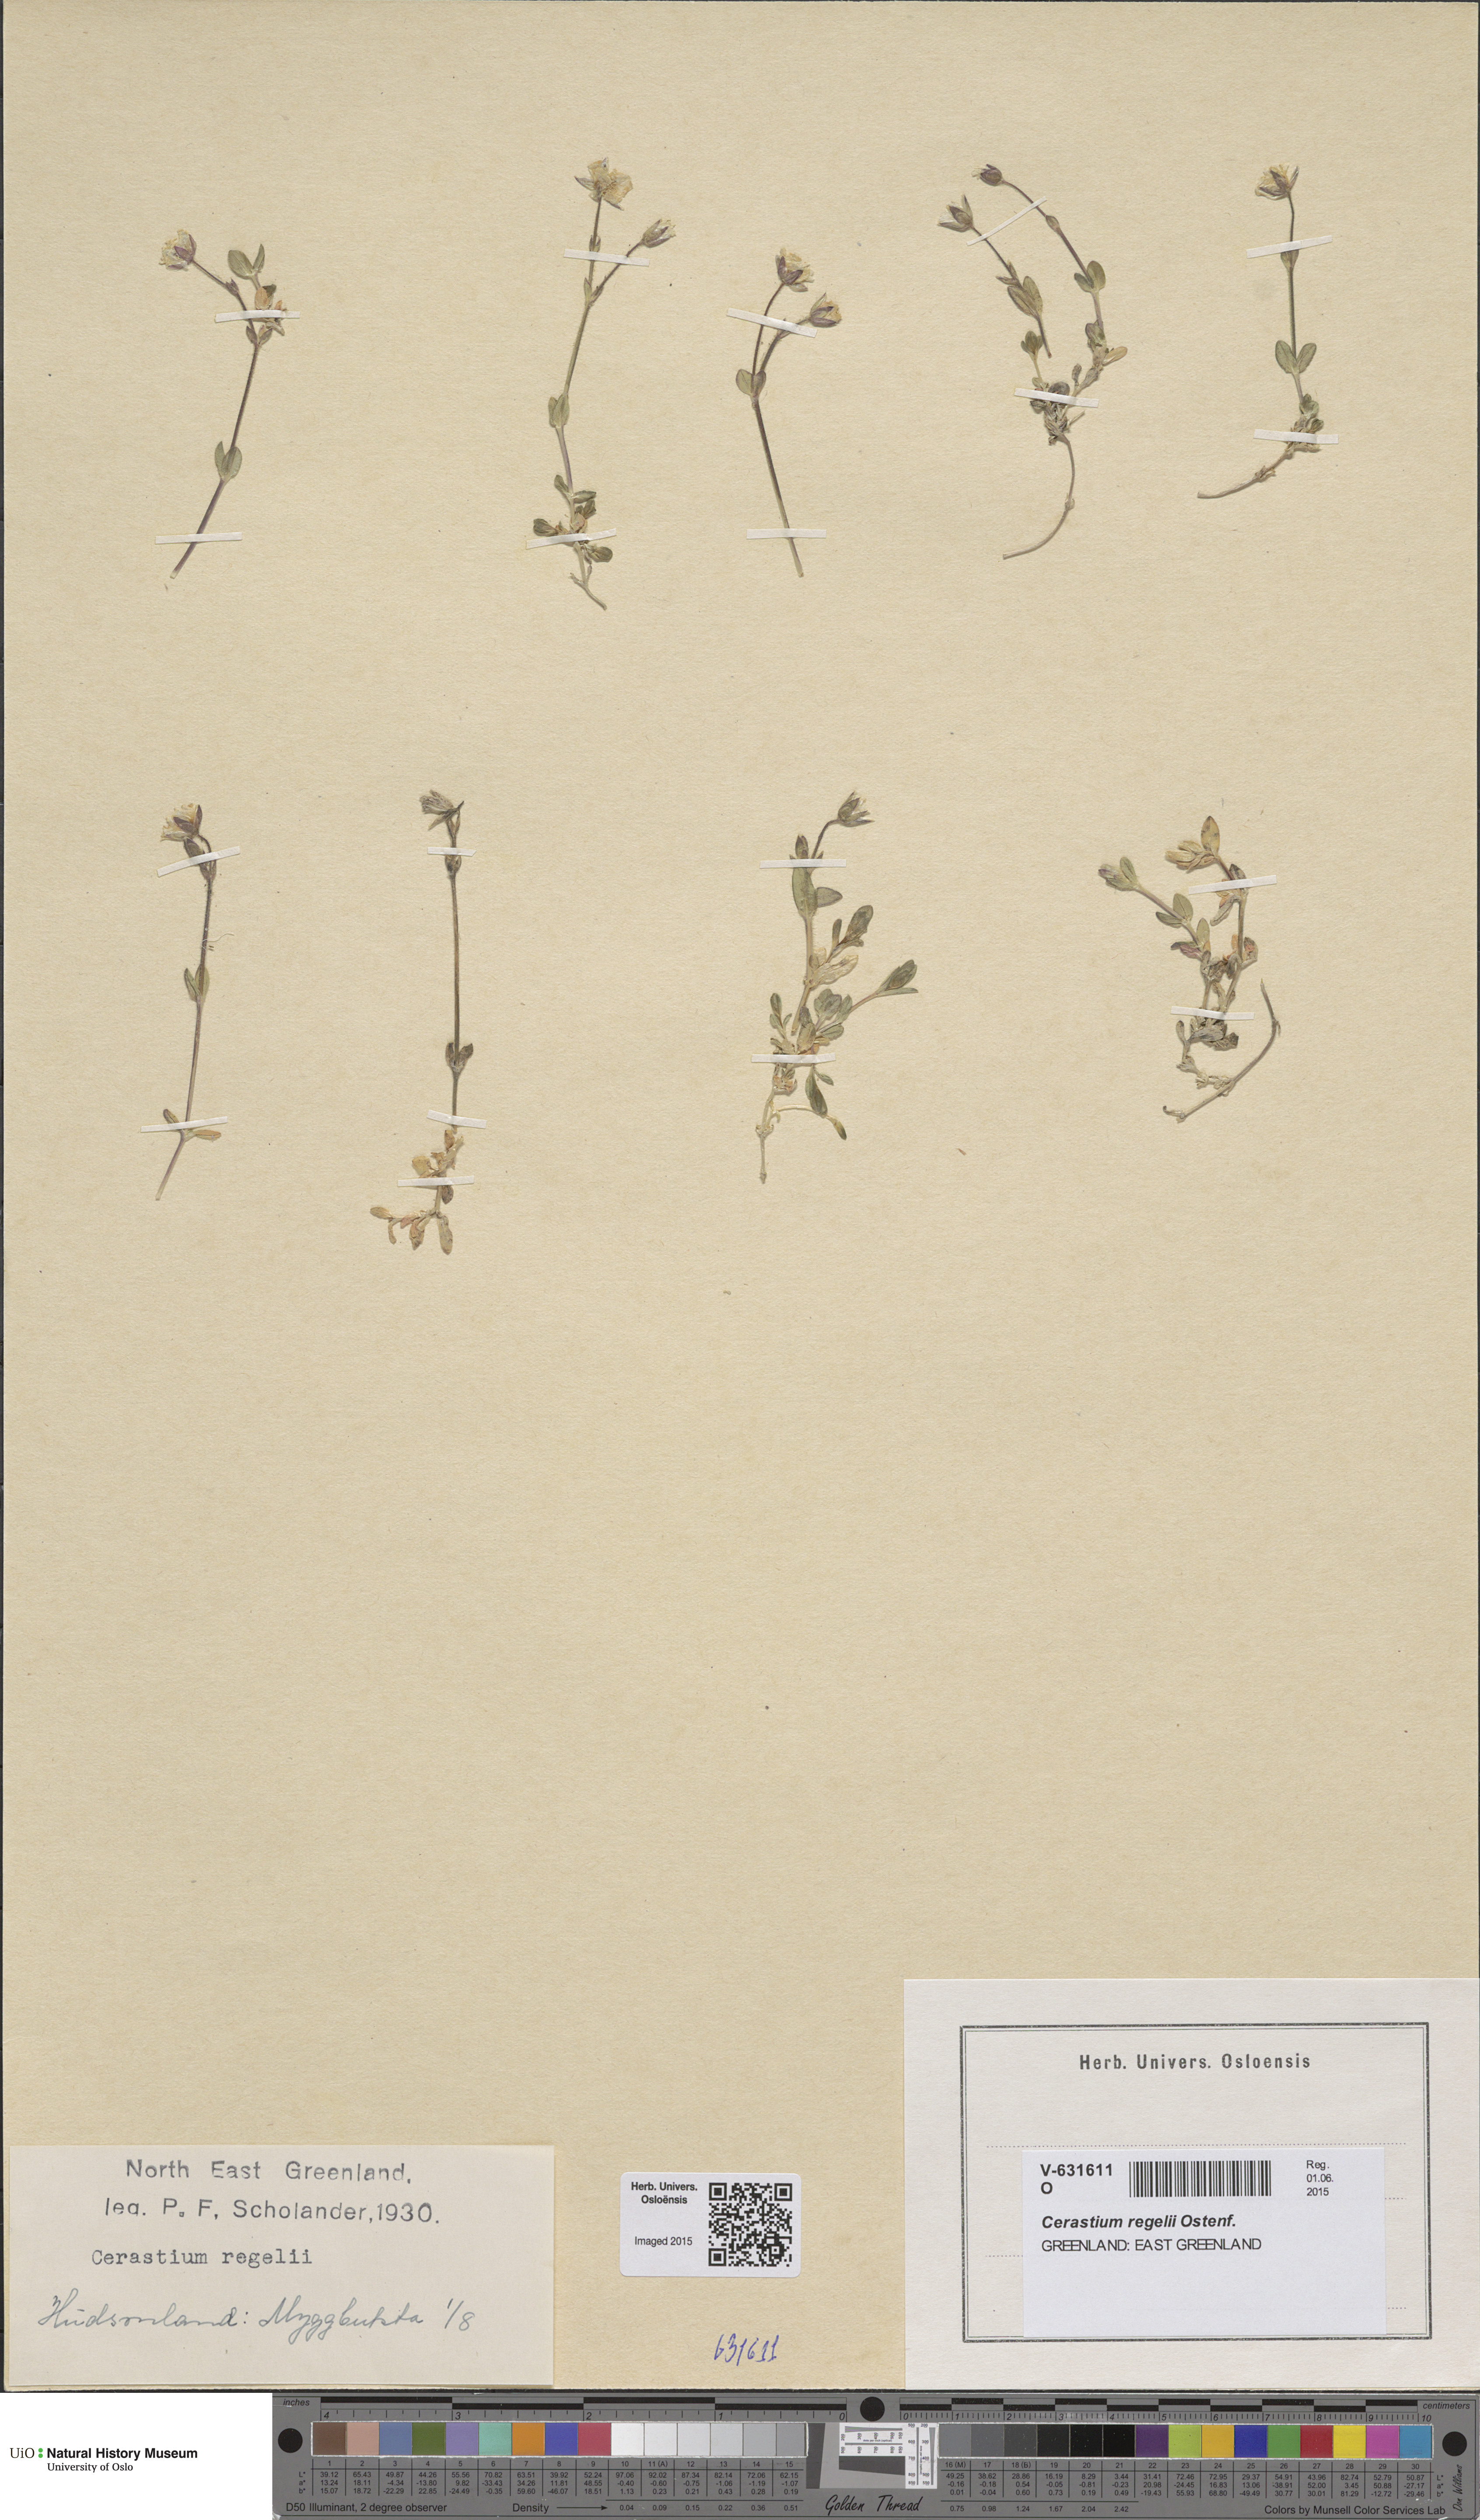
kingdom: Plantae
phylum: Tracheophyta
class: Magnoliopsida
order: Caryophyllales
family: Caryophyllaceae
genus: Cerastium
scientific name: Cerastium regelii
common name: Regel's chickweed
